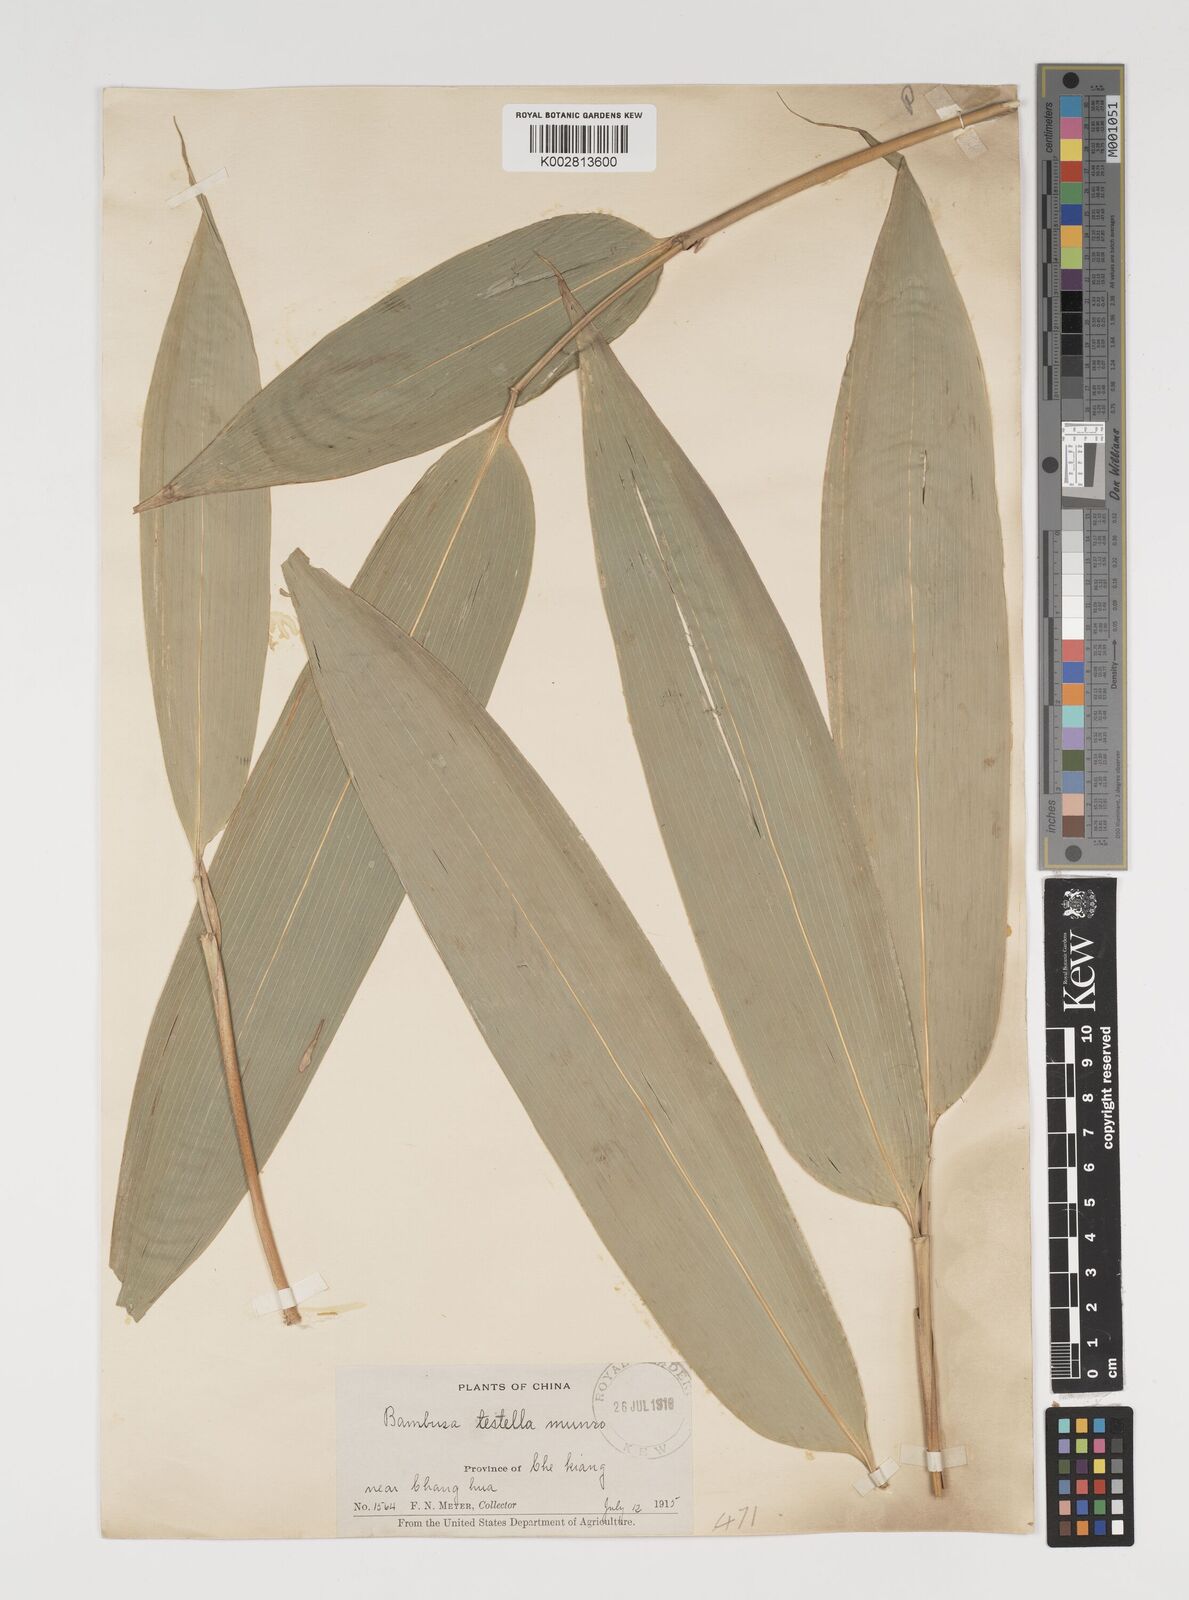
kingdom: Plantae
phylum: Tracheophyta
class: Liliopsida
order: Poales
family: Poaceae
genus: Indocalamus
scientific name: Indocalamus tessellatus
